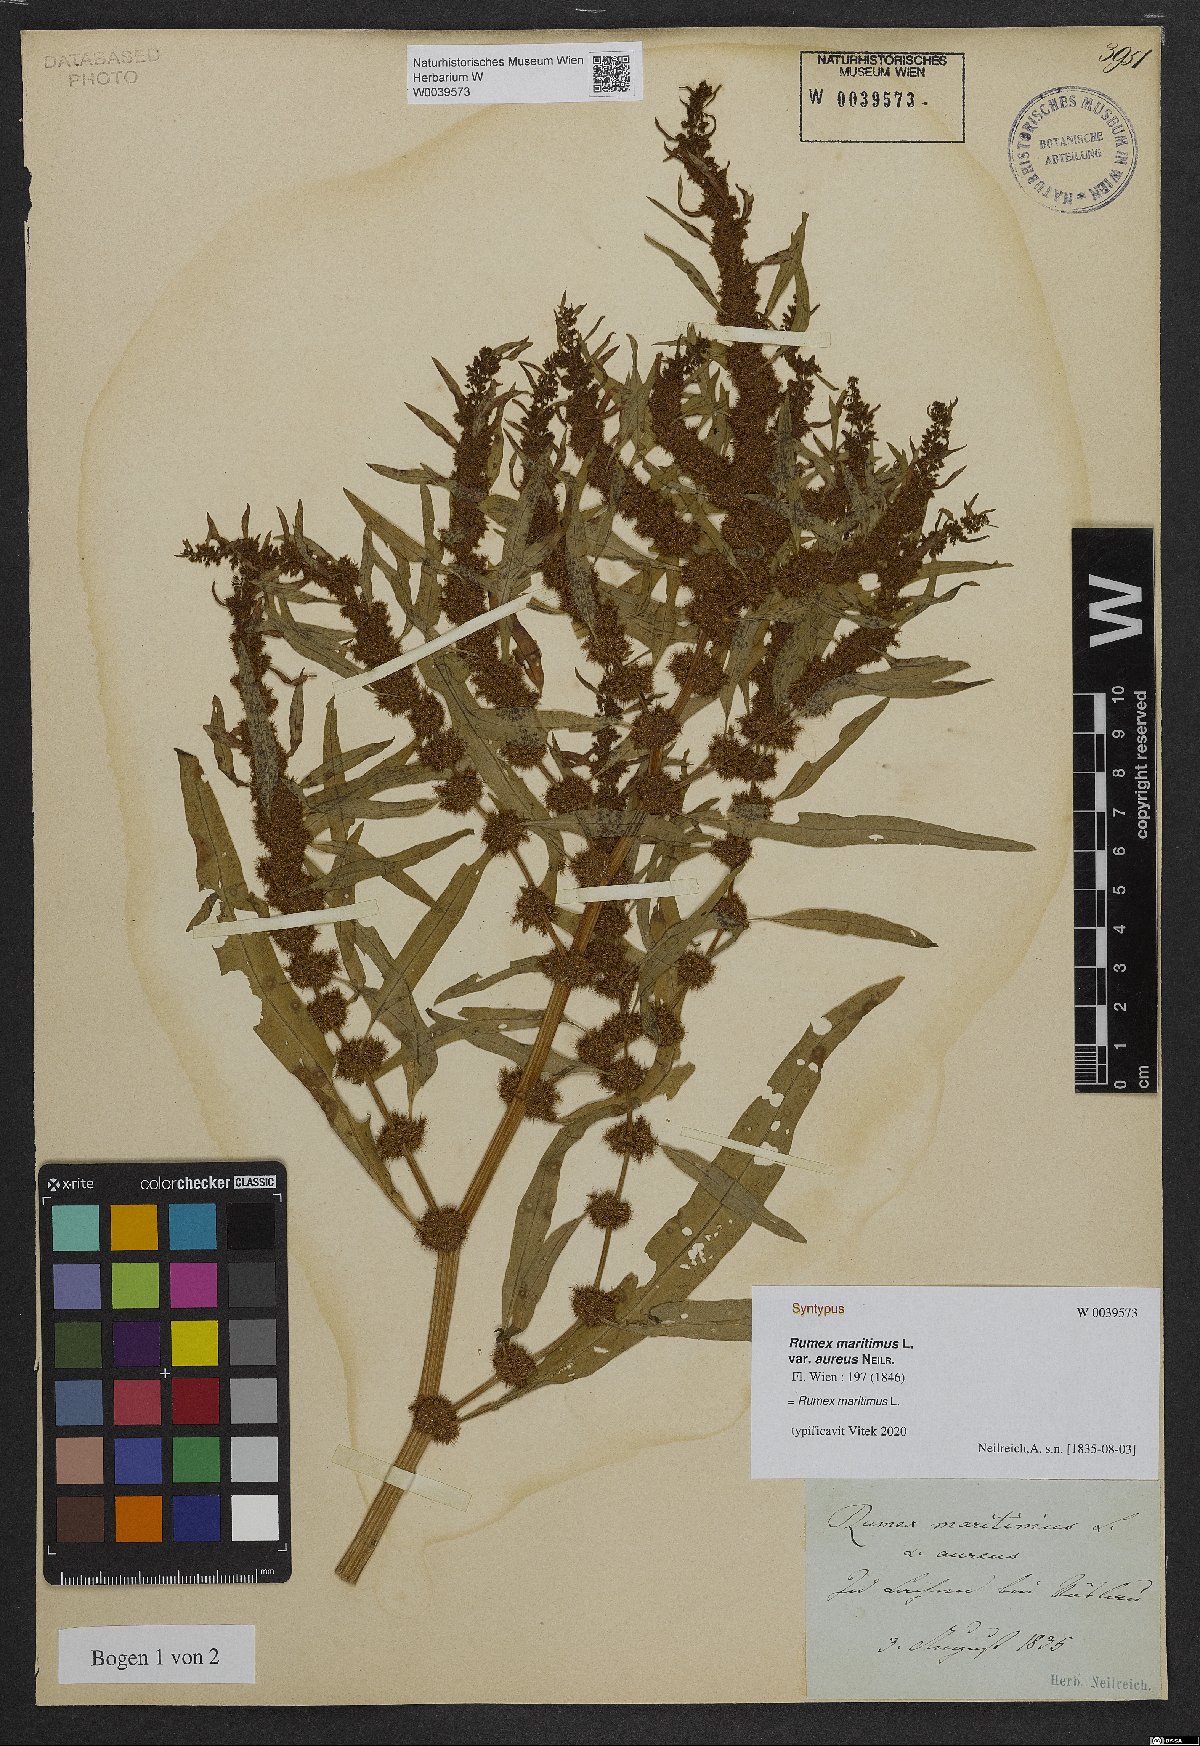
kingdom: Plantae
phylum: Tracheophyta
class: Magnoliopsida
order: Caryophyllales
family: Polygonaceae
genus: Rumex
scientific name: Rumex maritimus
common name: Golden dock
